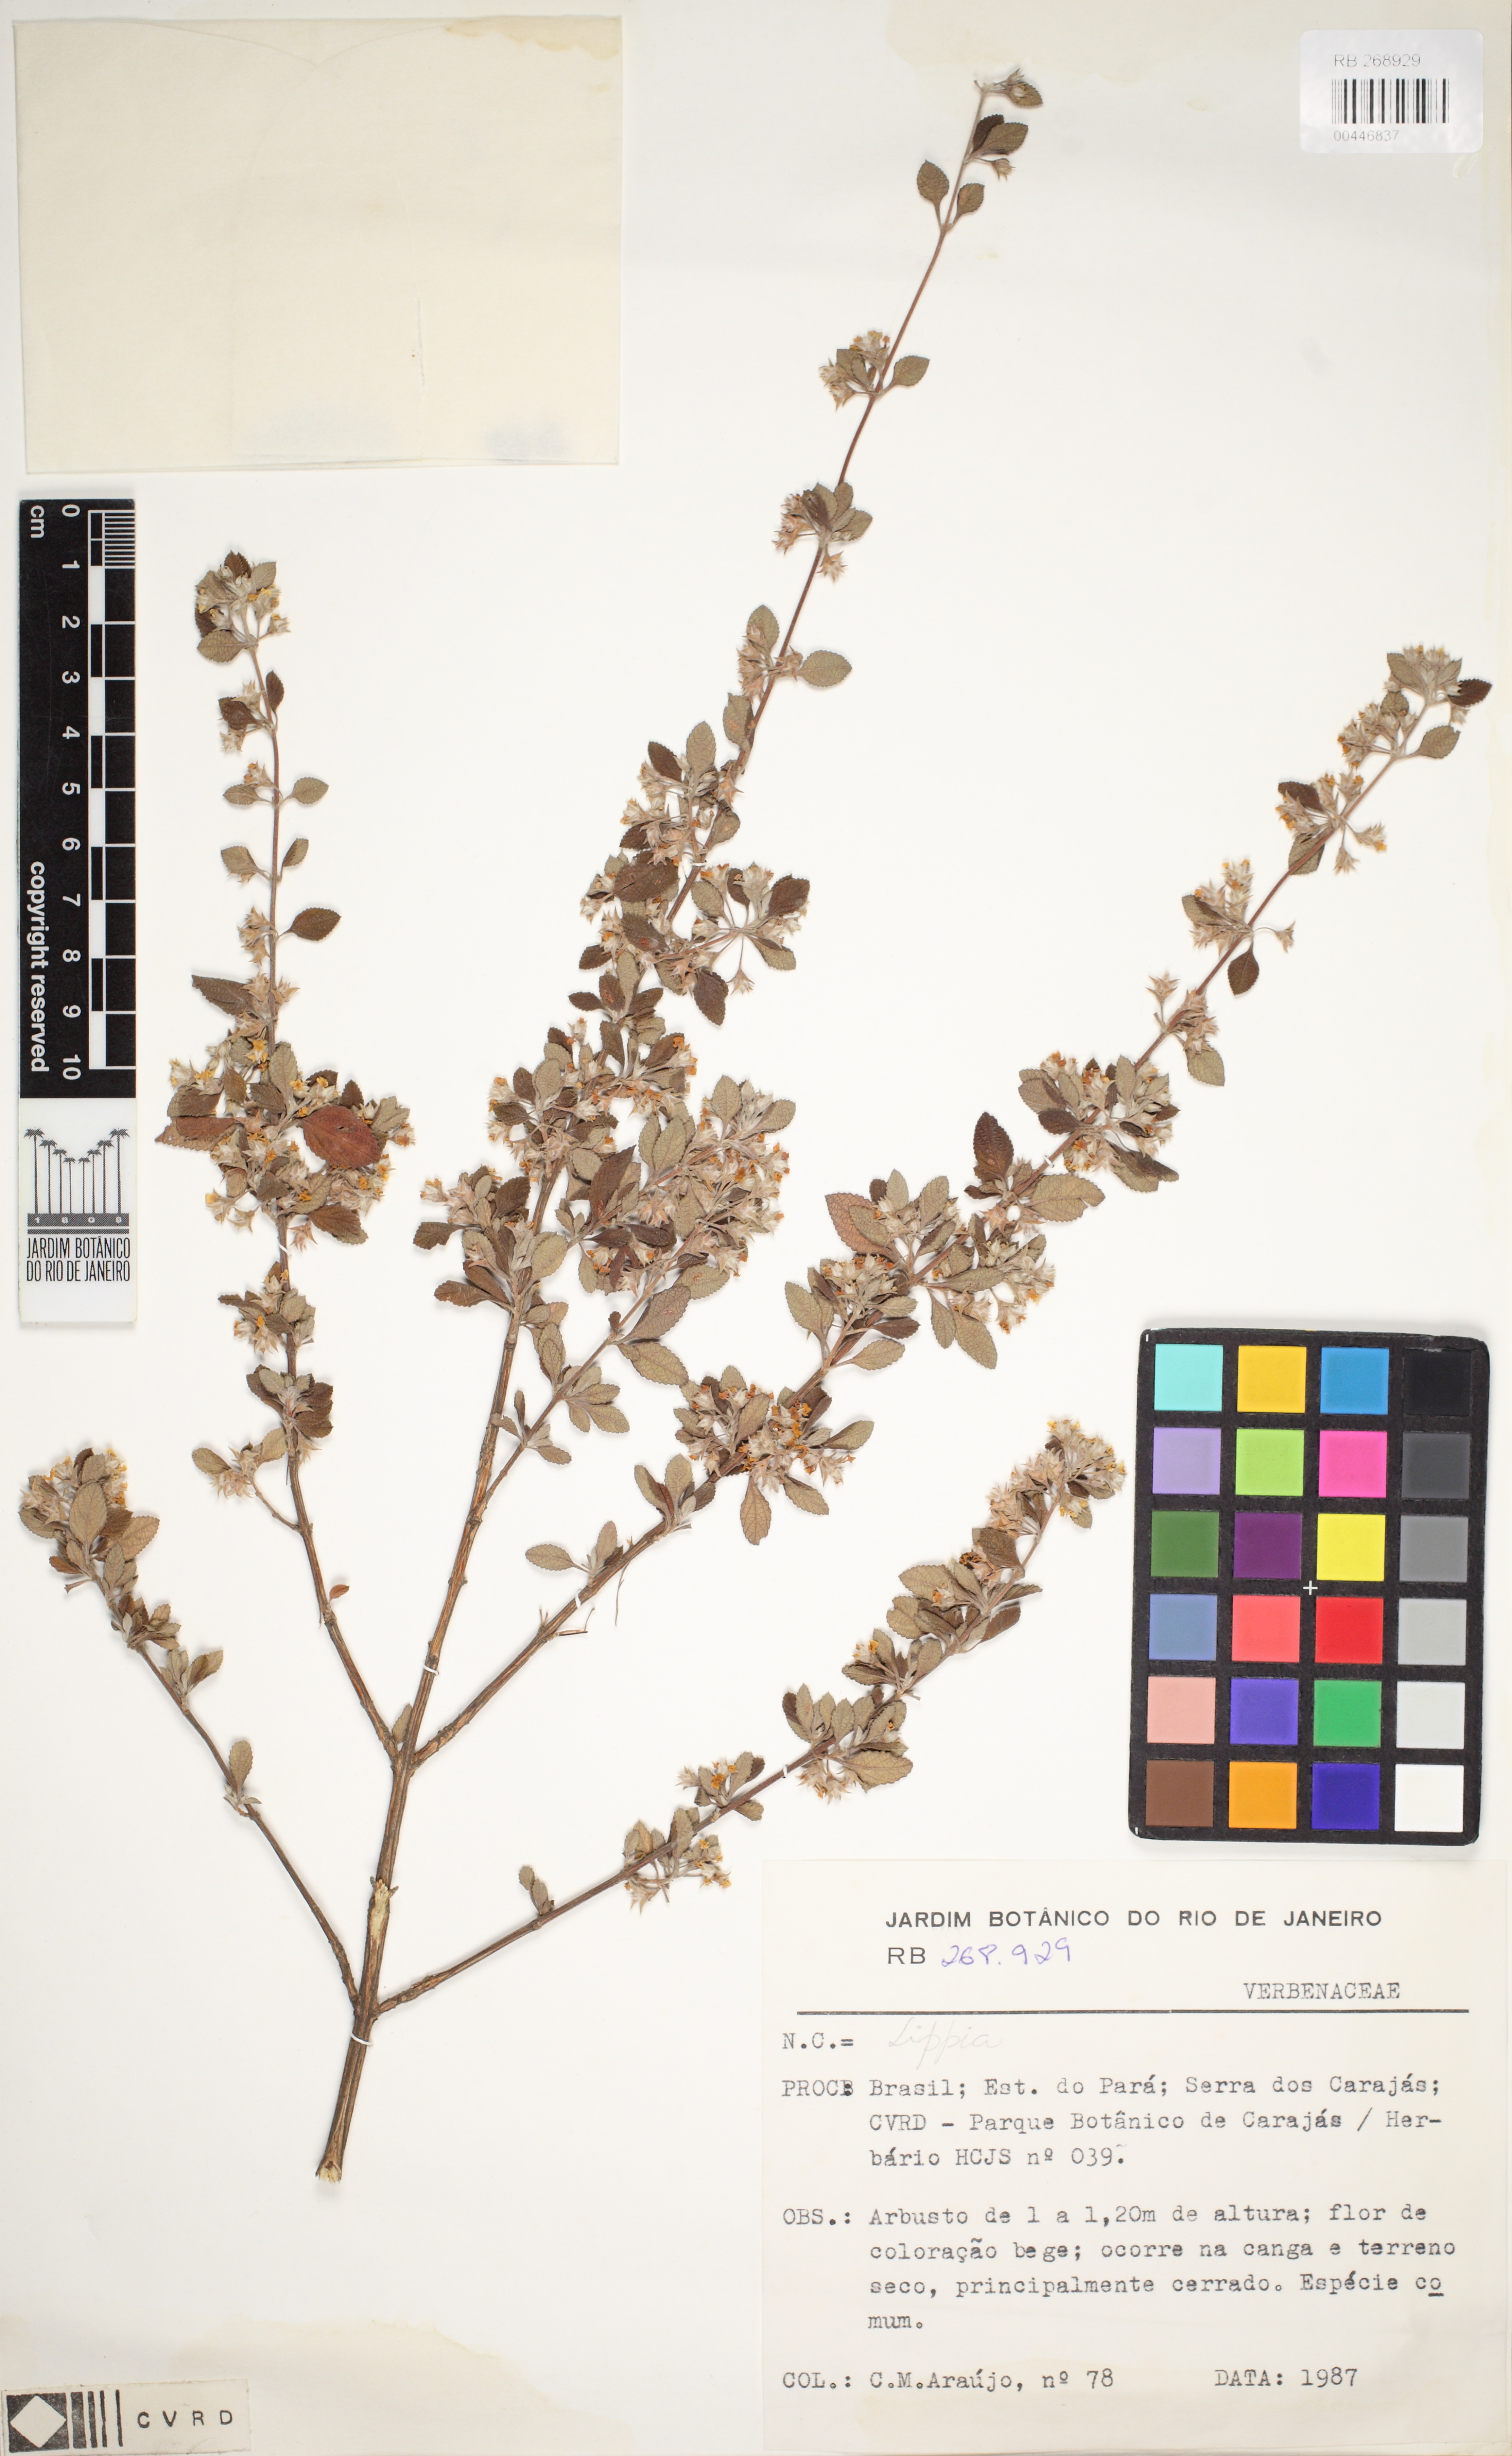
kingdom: Plantae
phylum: Tracheophyta
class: Magnoliopsida
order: Lamiales
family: Verbenaceae
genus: Lippia
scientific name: Lippia origanoides
